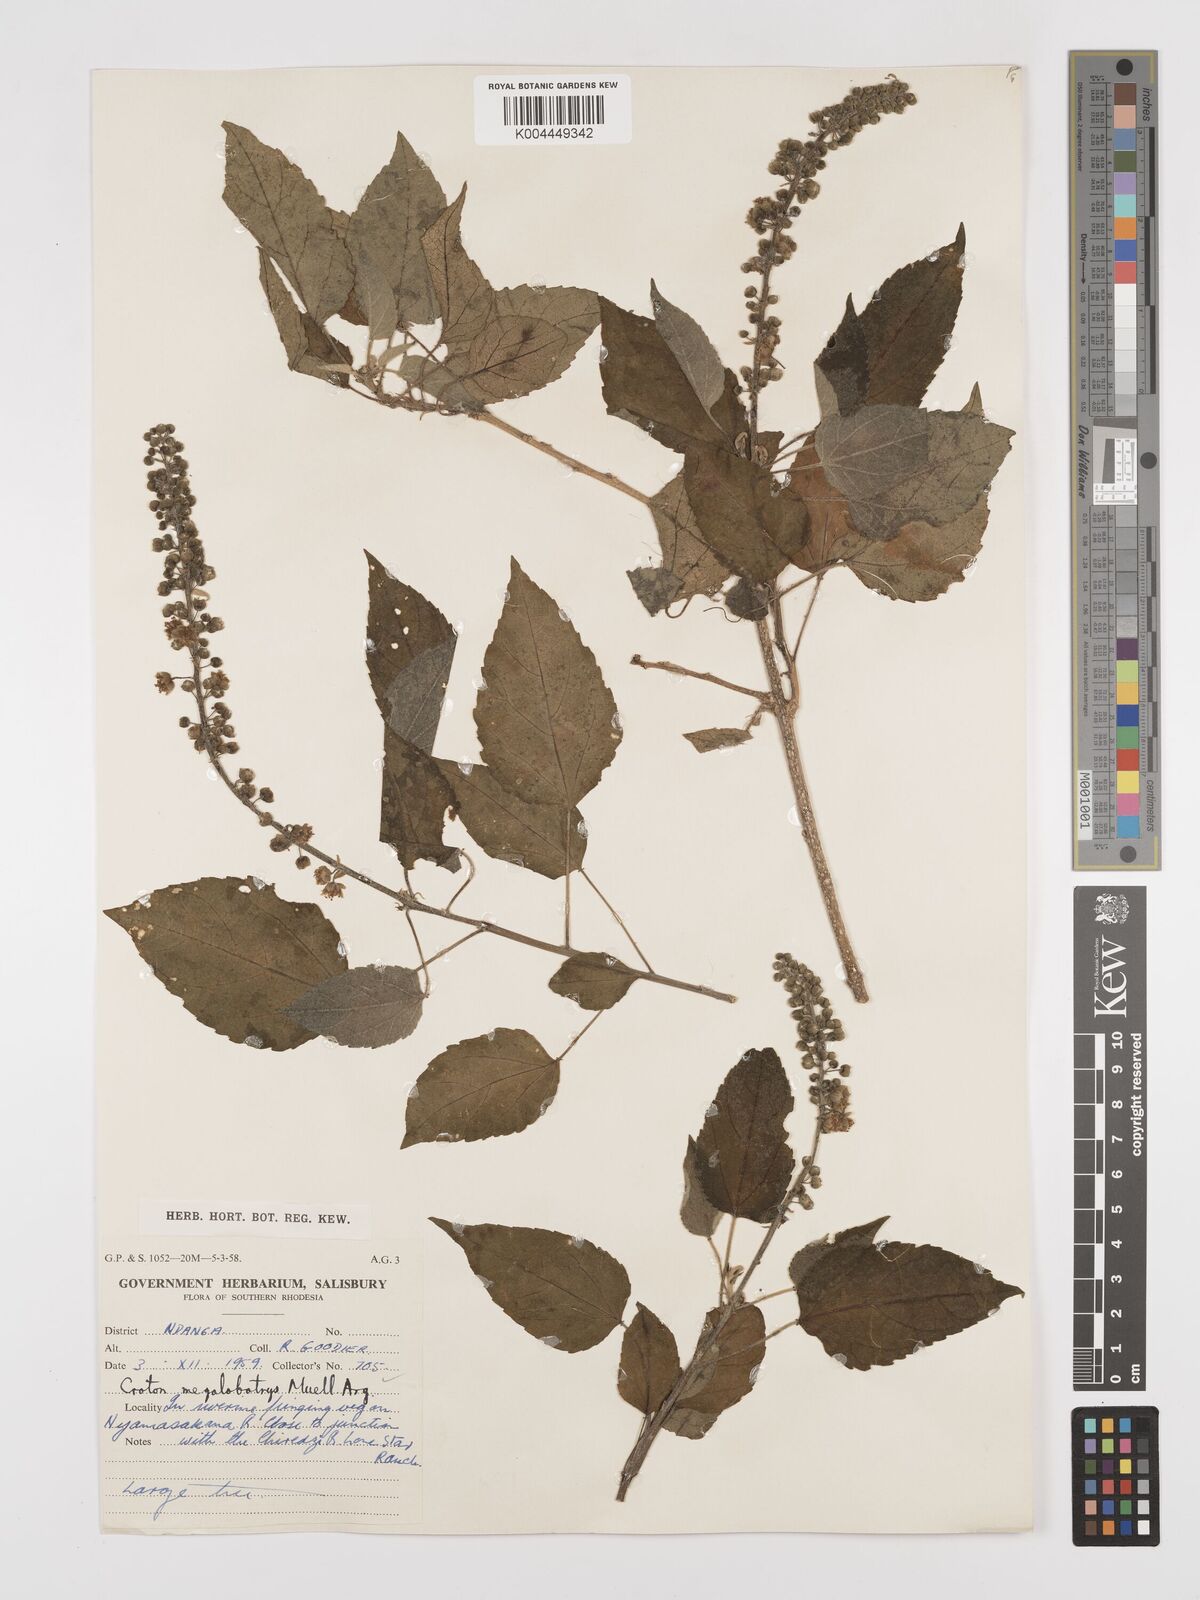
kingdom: Plantae
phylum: Tracheophyta
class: Magnoliopsida
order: Malpighiales
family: Euphorbiaceae
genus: Croton
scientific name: Croton megalobotrys
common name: Large fever berry
